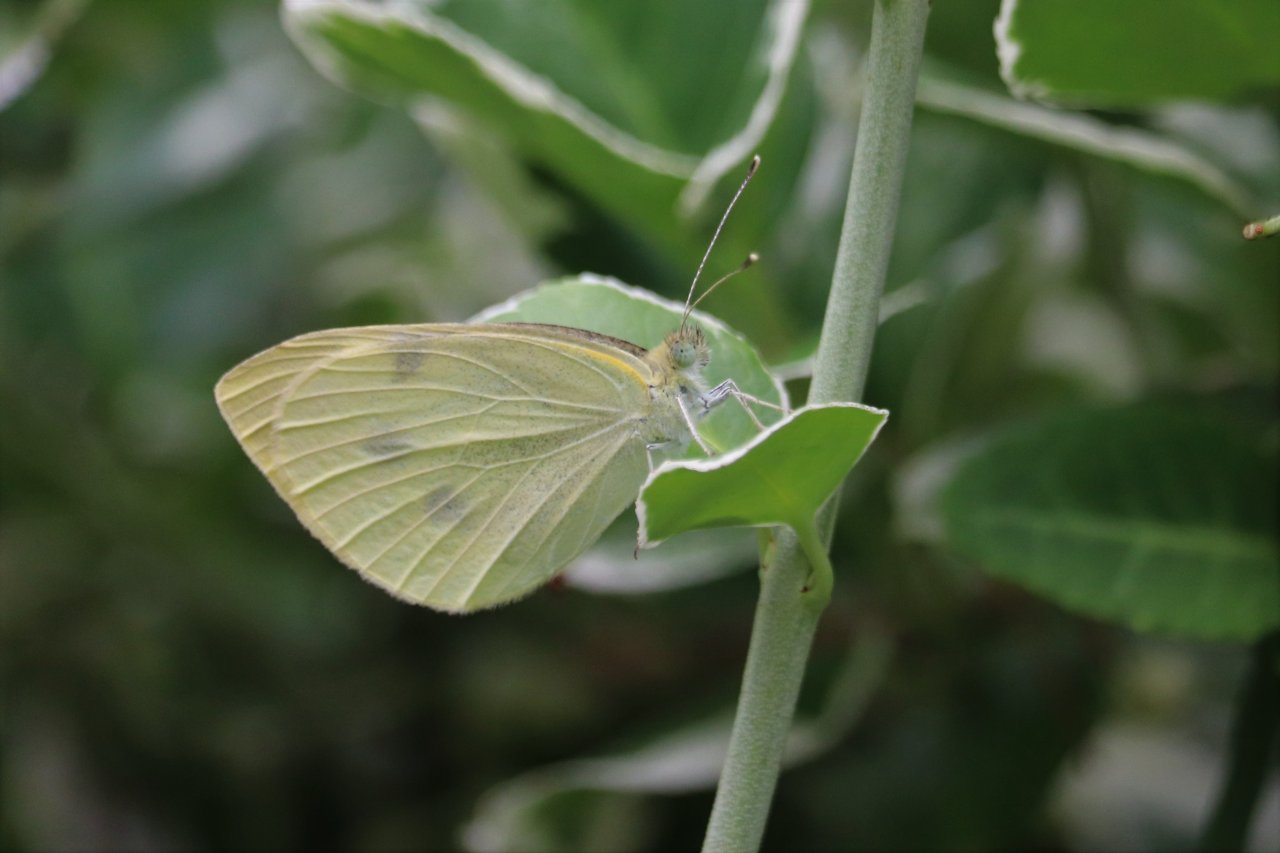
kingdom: Animalia
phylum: Arthropoda
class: Insecta
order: Lepidoptera
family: Pieridae
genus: Pieris
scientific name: Pieris rapae
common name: Cabbage White
